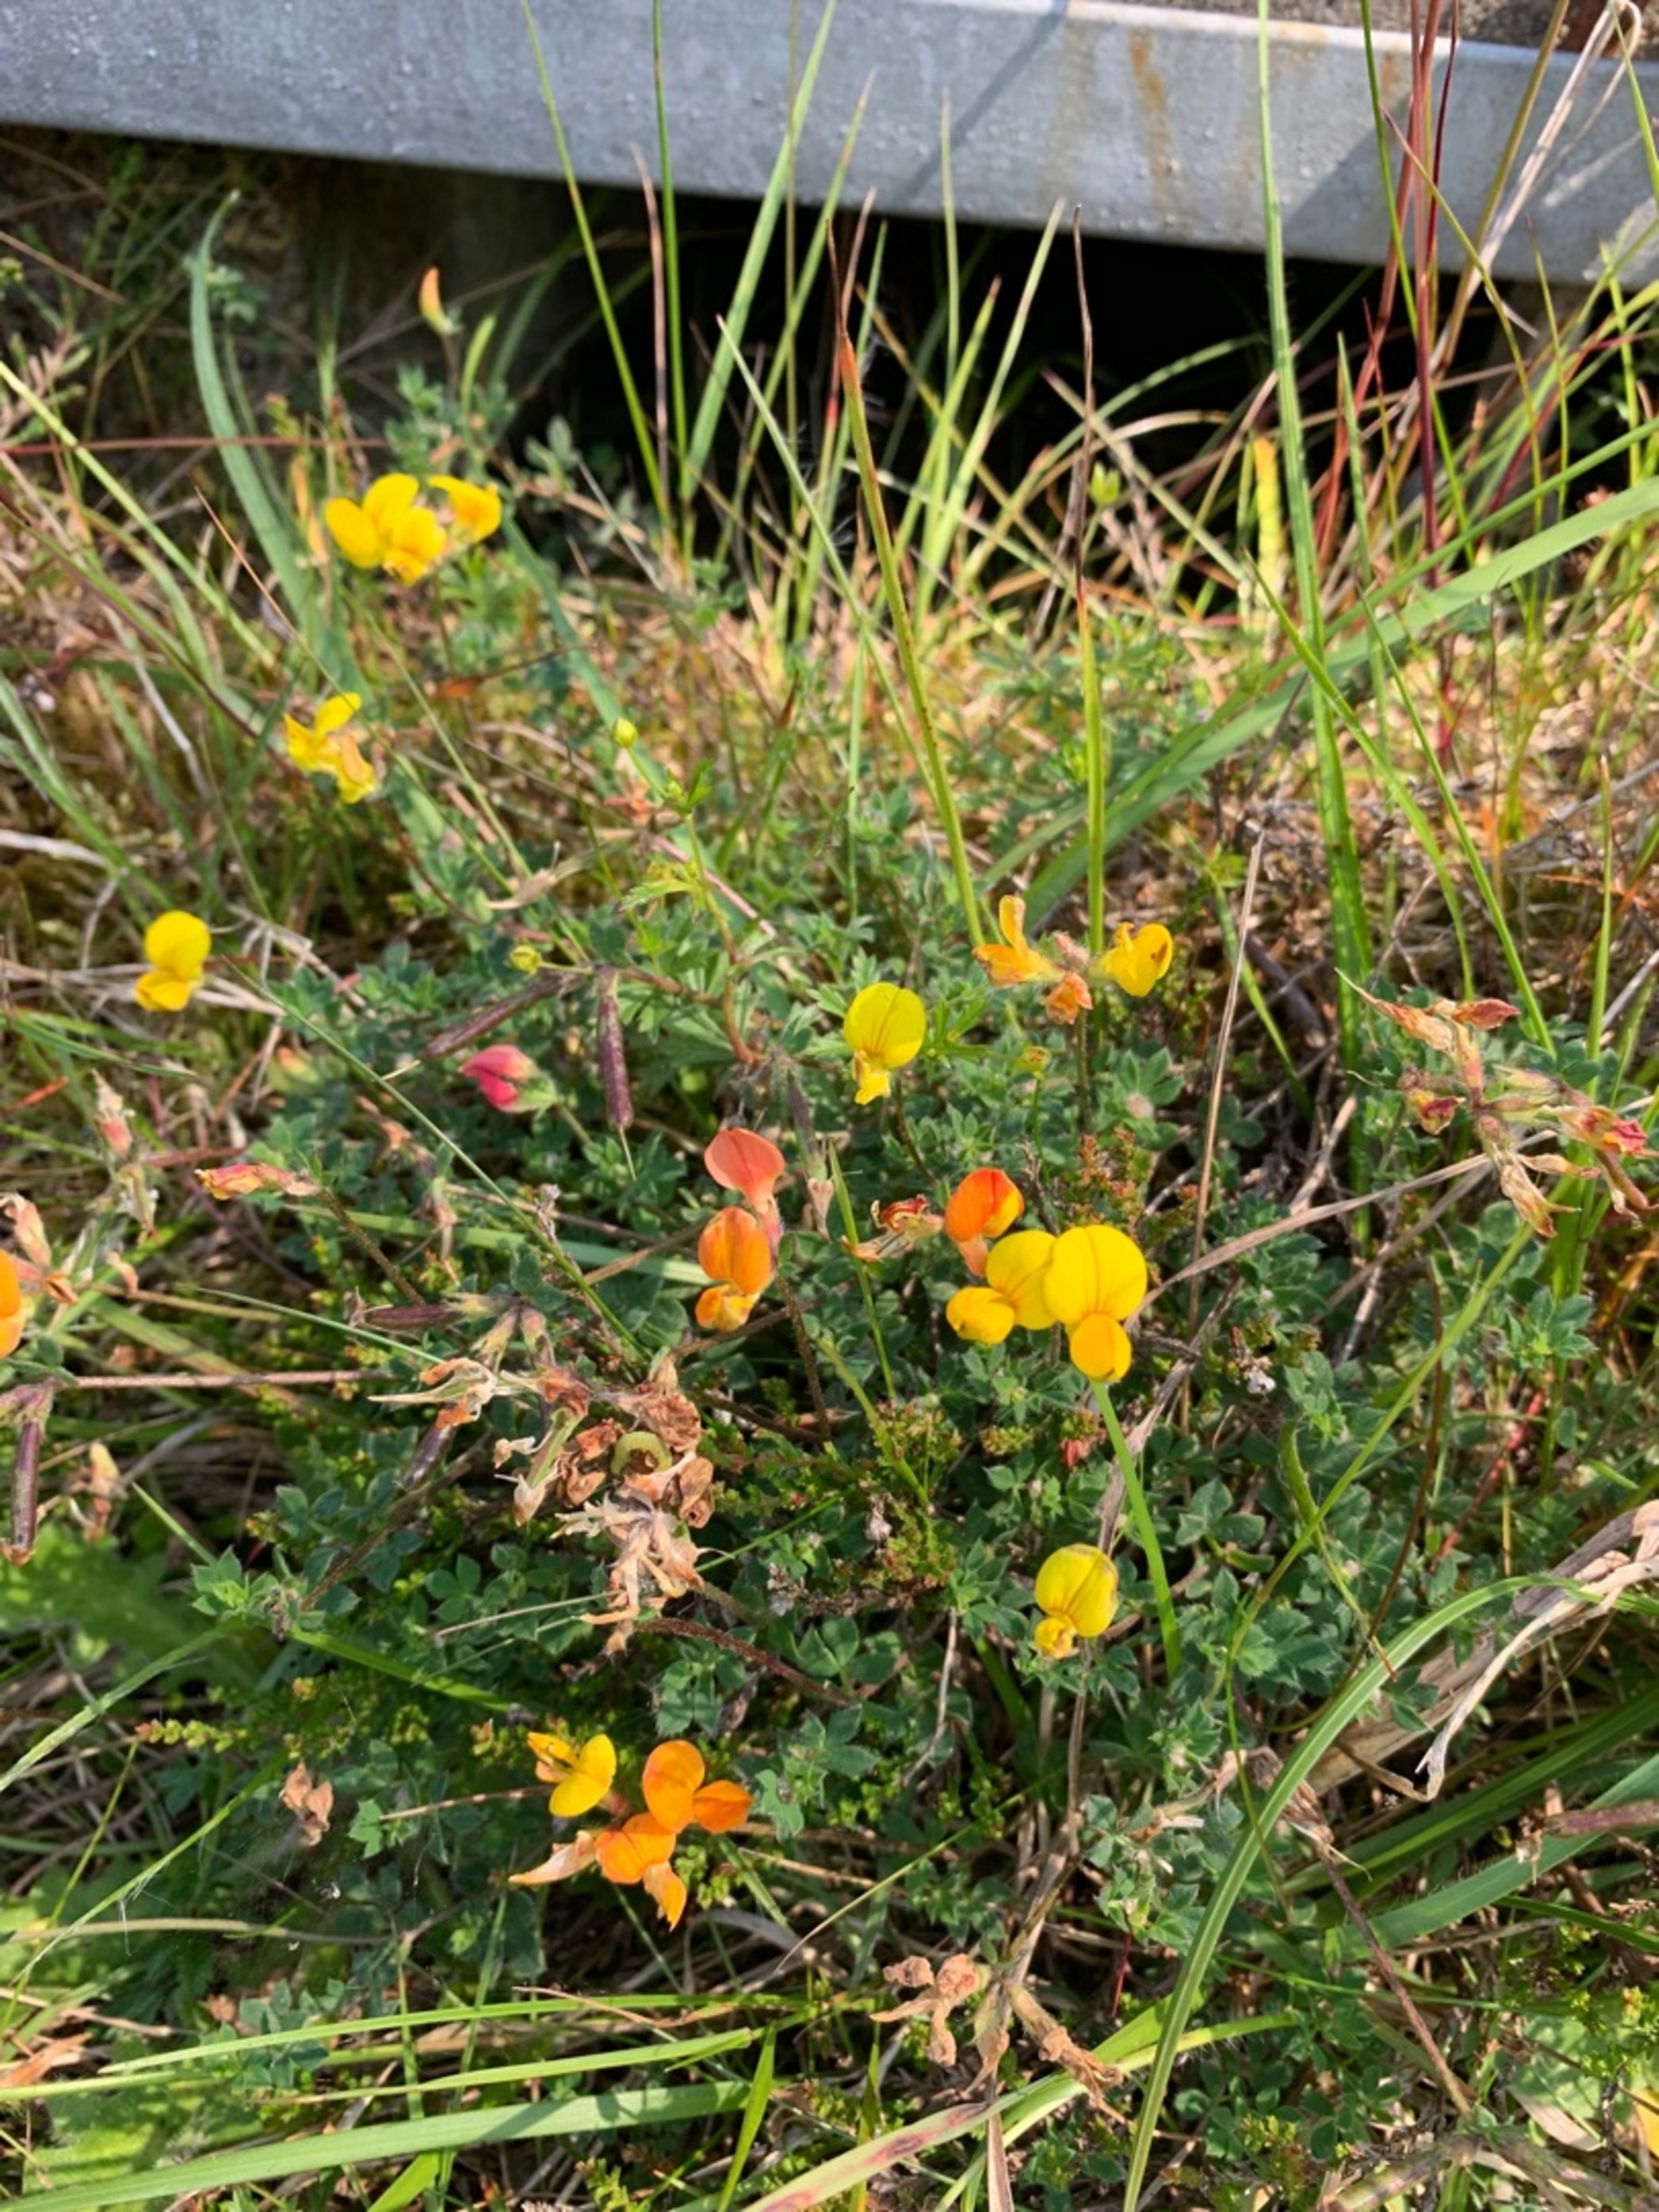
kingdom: Plantae
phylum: Tracheophyta
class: Magnoliopsida
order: Fabales
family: Fabaceae
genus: Lotus
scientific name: Lotus corniculatus
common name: Almindelig kællingetand
